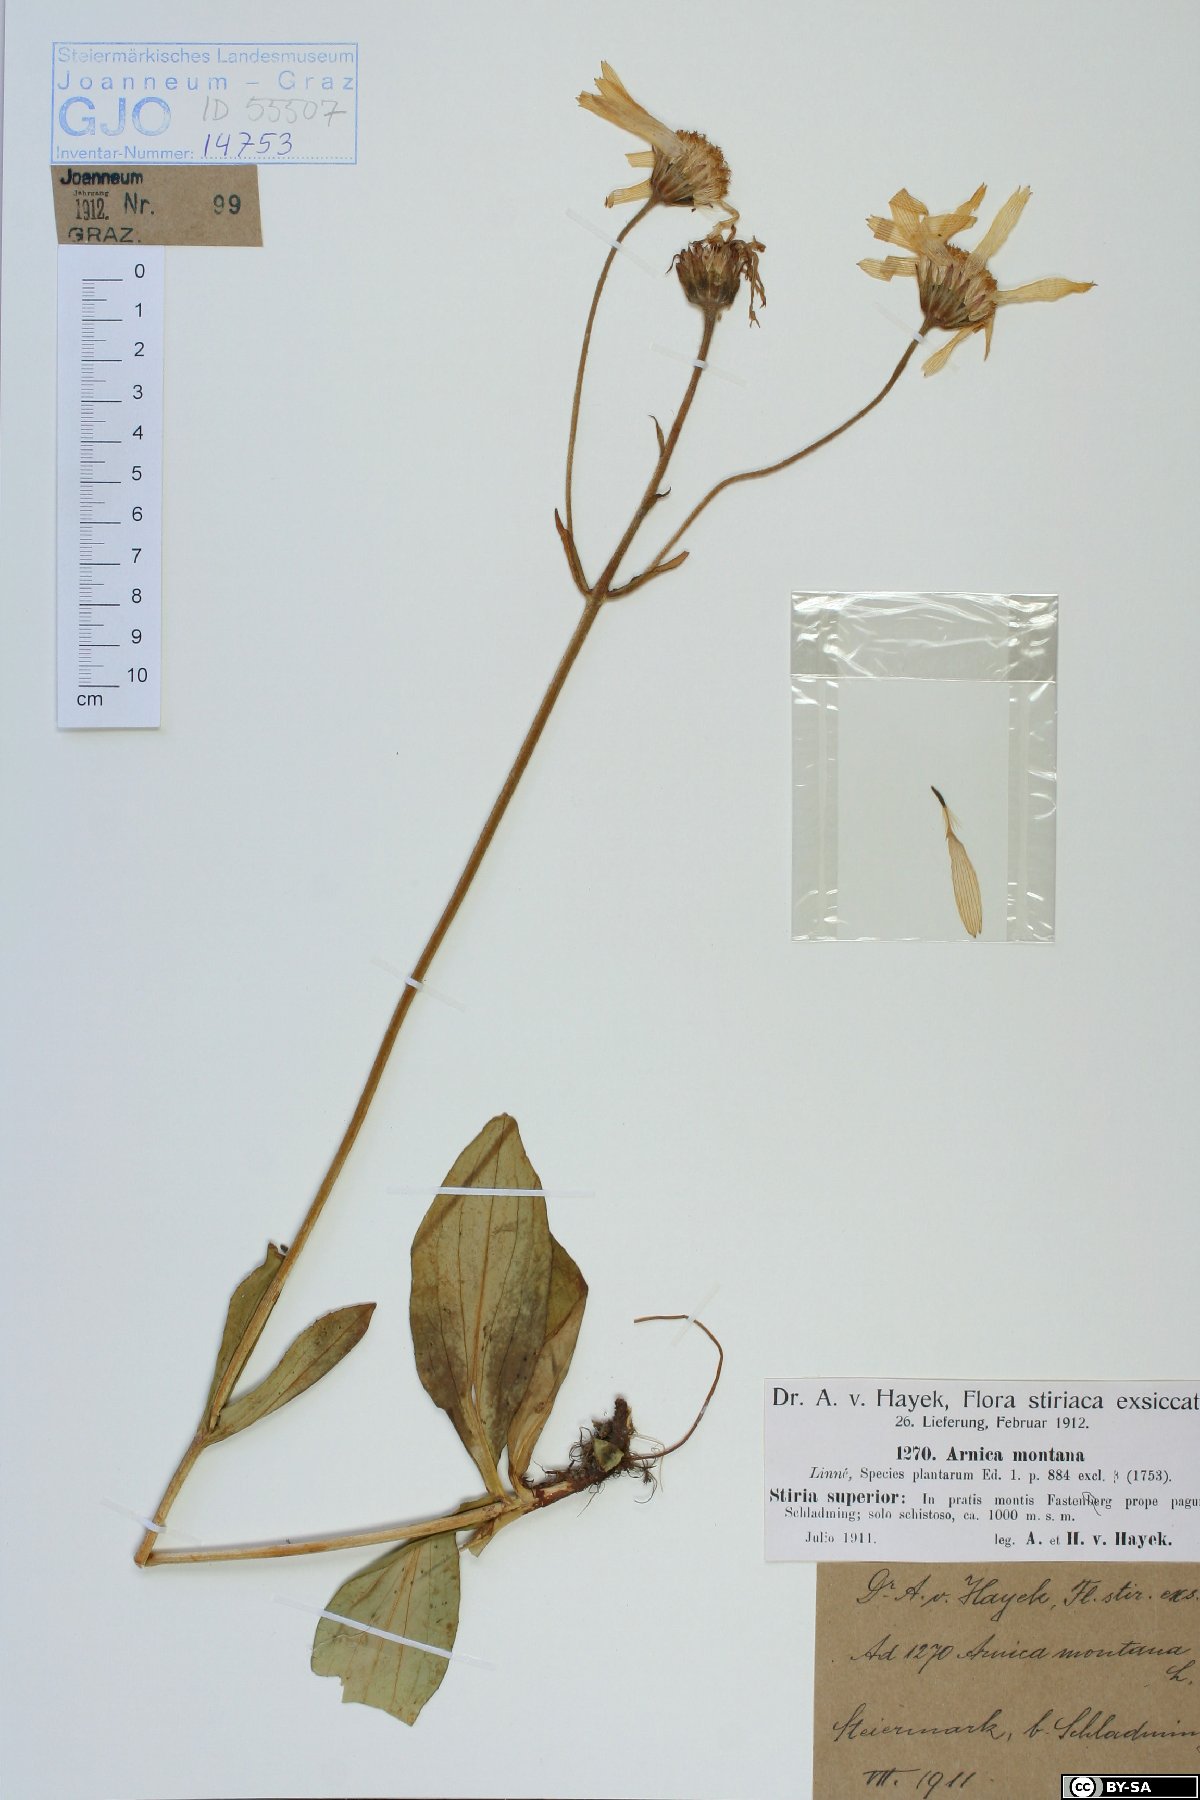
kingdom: Plantae
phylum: Tracheophyta
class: Magnoliopsida
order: Asterales
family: Asteraceae
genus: Arnica
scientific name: Arnica montana
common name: Leopard's bane
